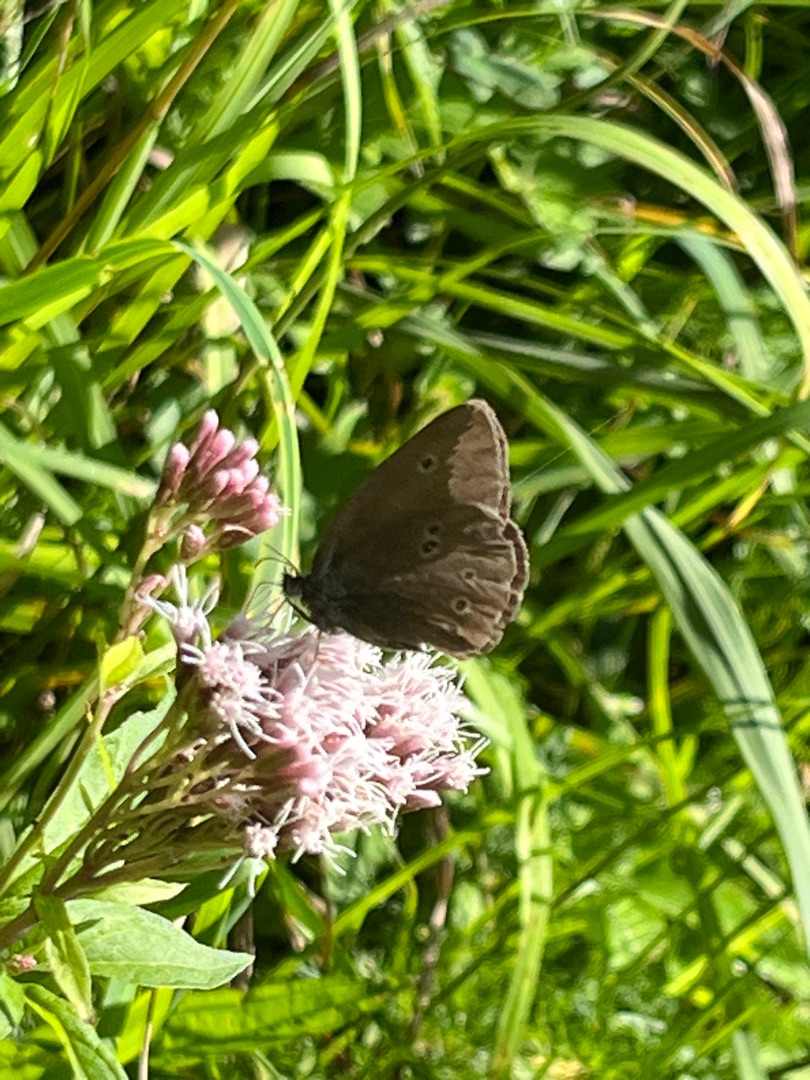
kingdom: Animalia
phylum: Arthropoda
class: Insecta
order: Lepidoptera
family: Nymphalidae
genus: Aphantopus
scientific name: Aphantopus hyperantus
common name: Engrandøje
